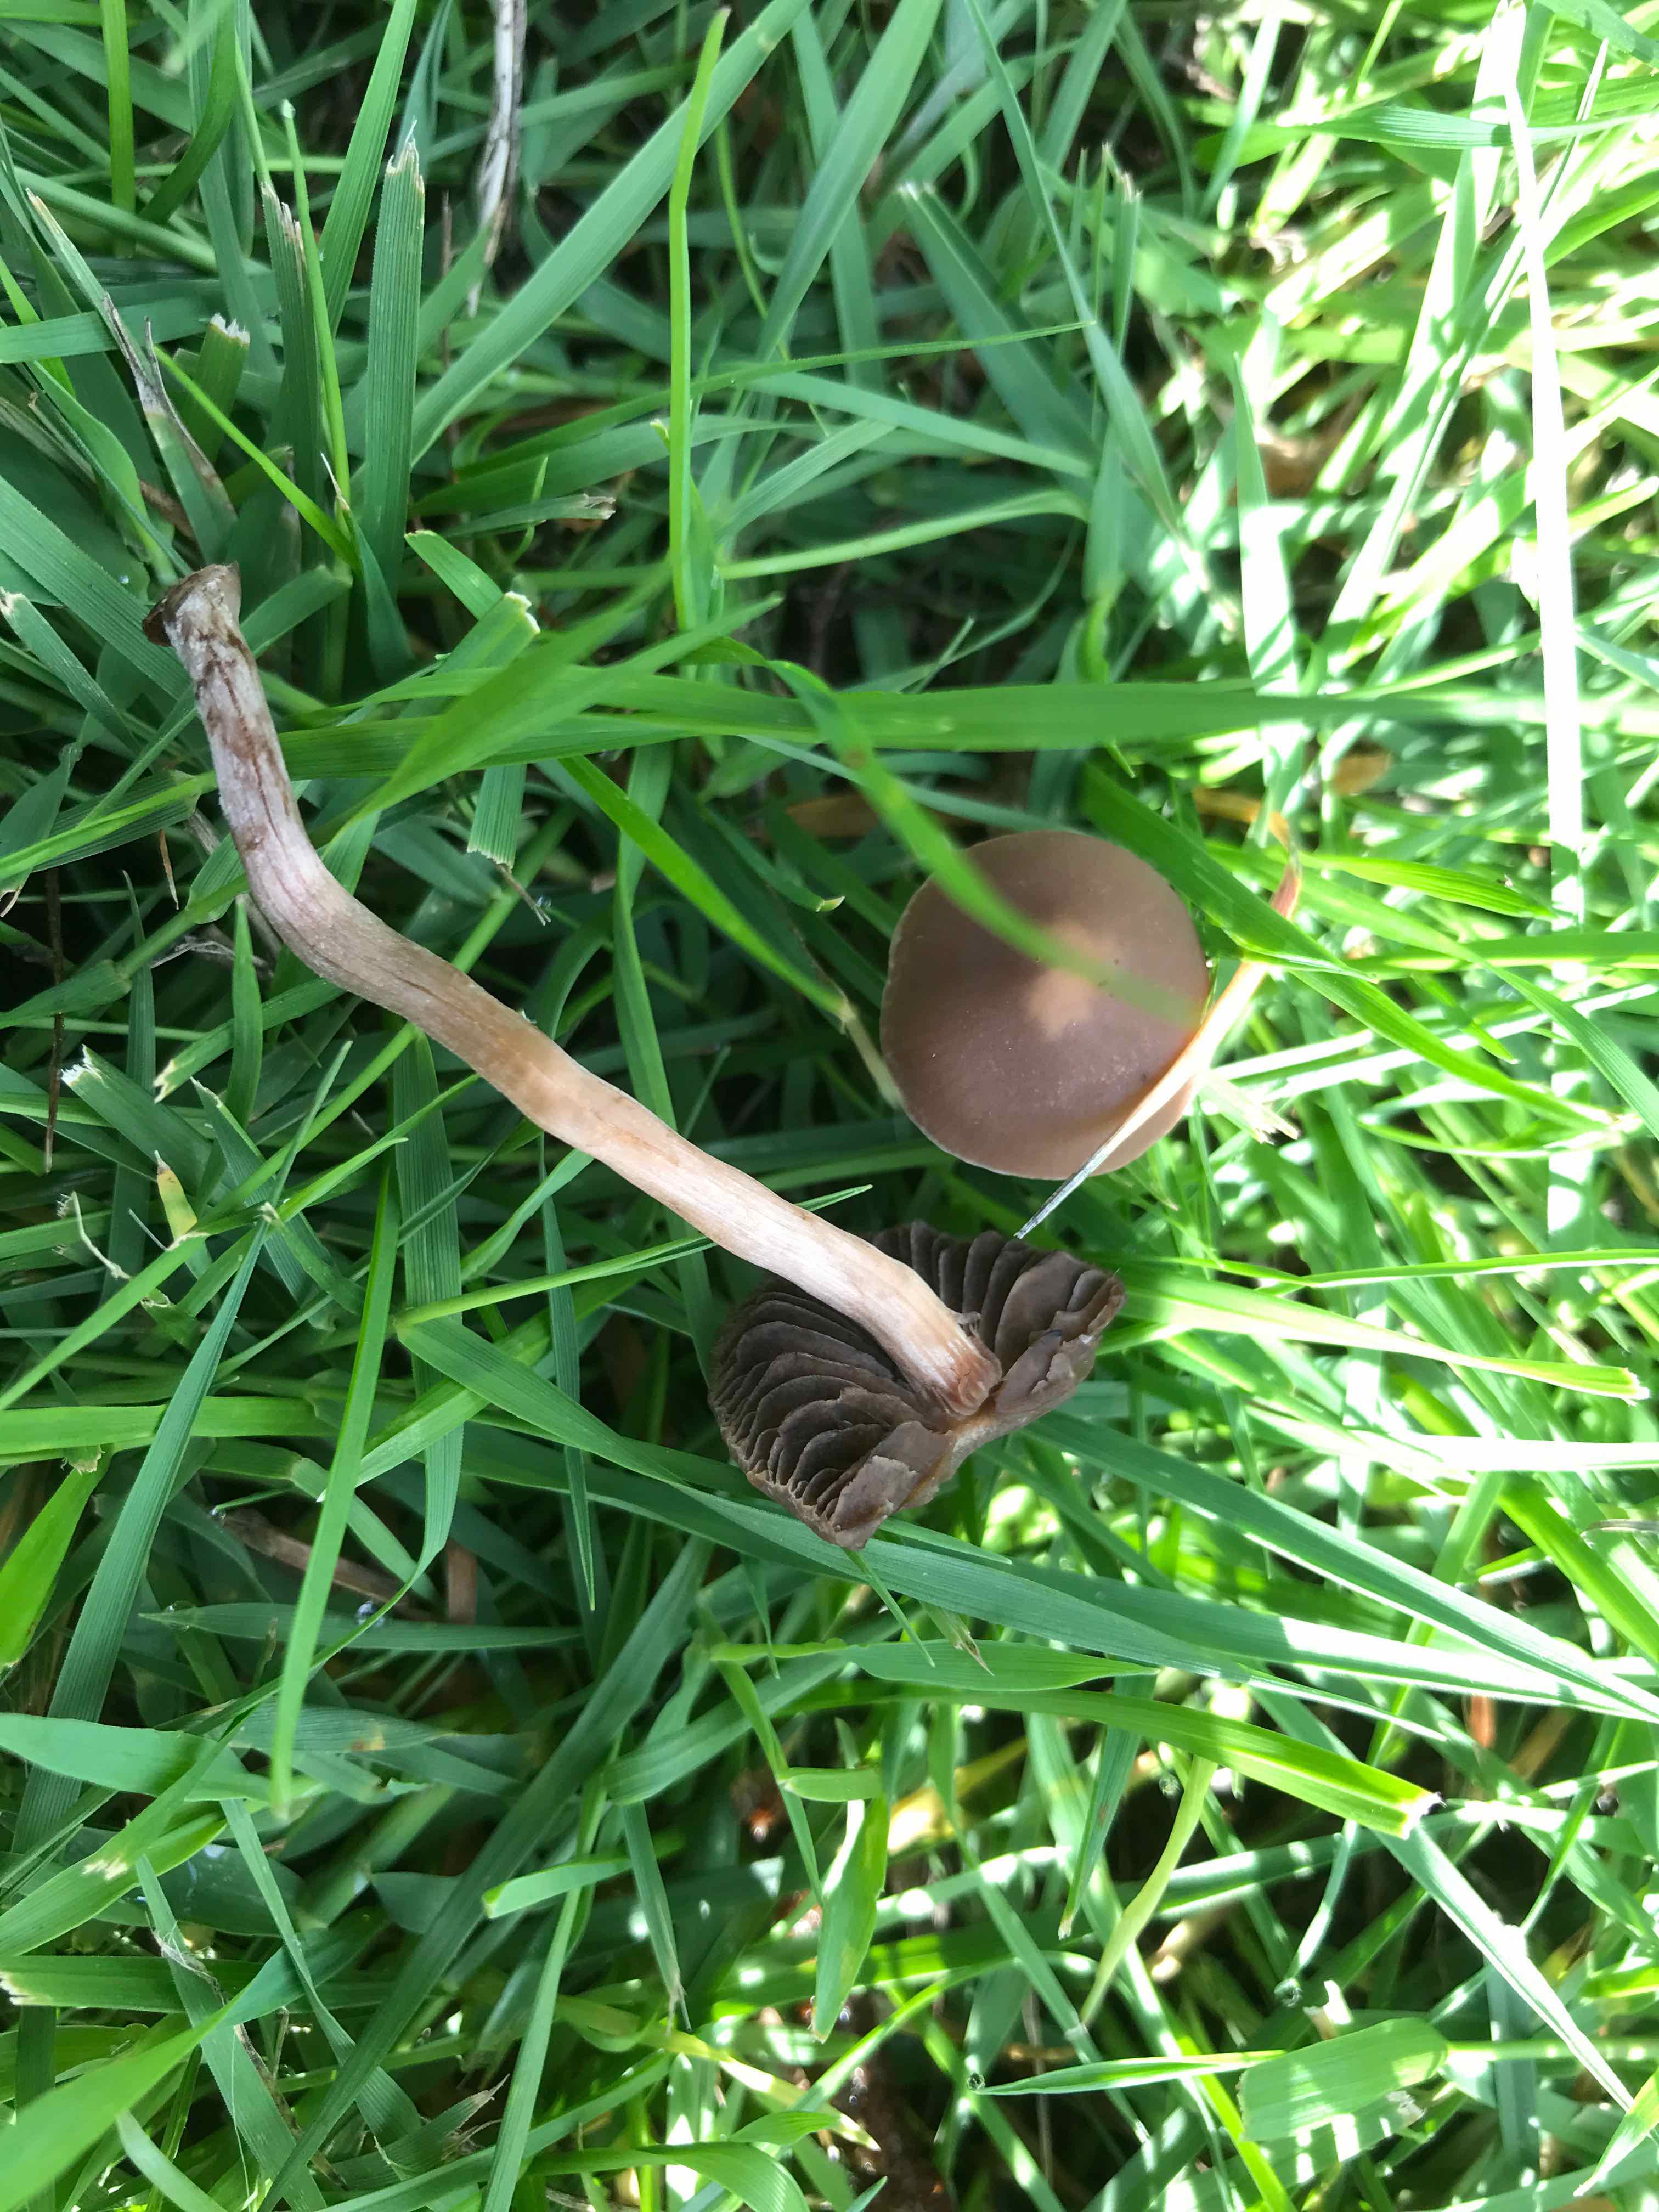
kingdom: Fungi
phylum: Basidiomycota
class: Agaricomycetes
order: Agaricales
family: Bolbitiaceae
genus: Panaeolina
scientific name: Panaeolina foenisecii
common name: høslætsvamp
